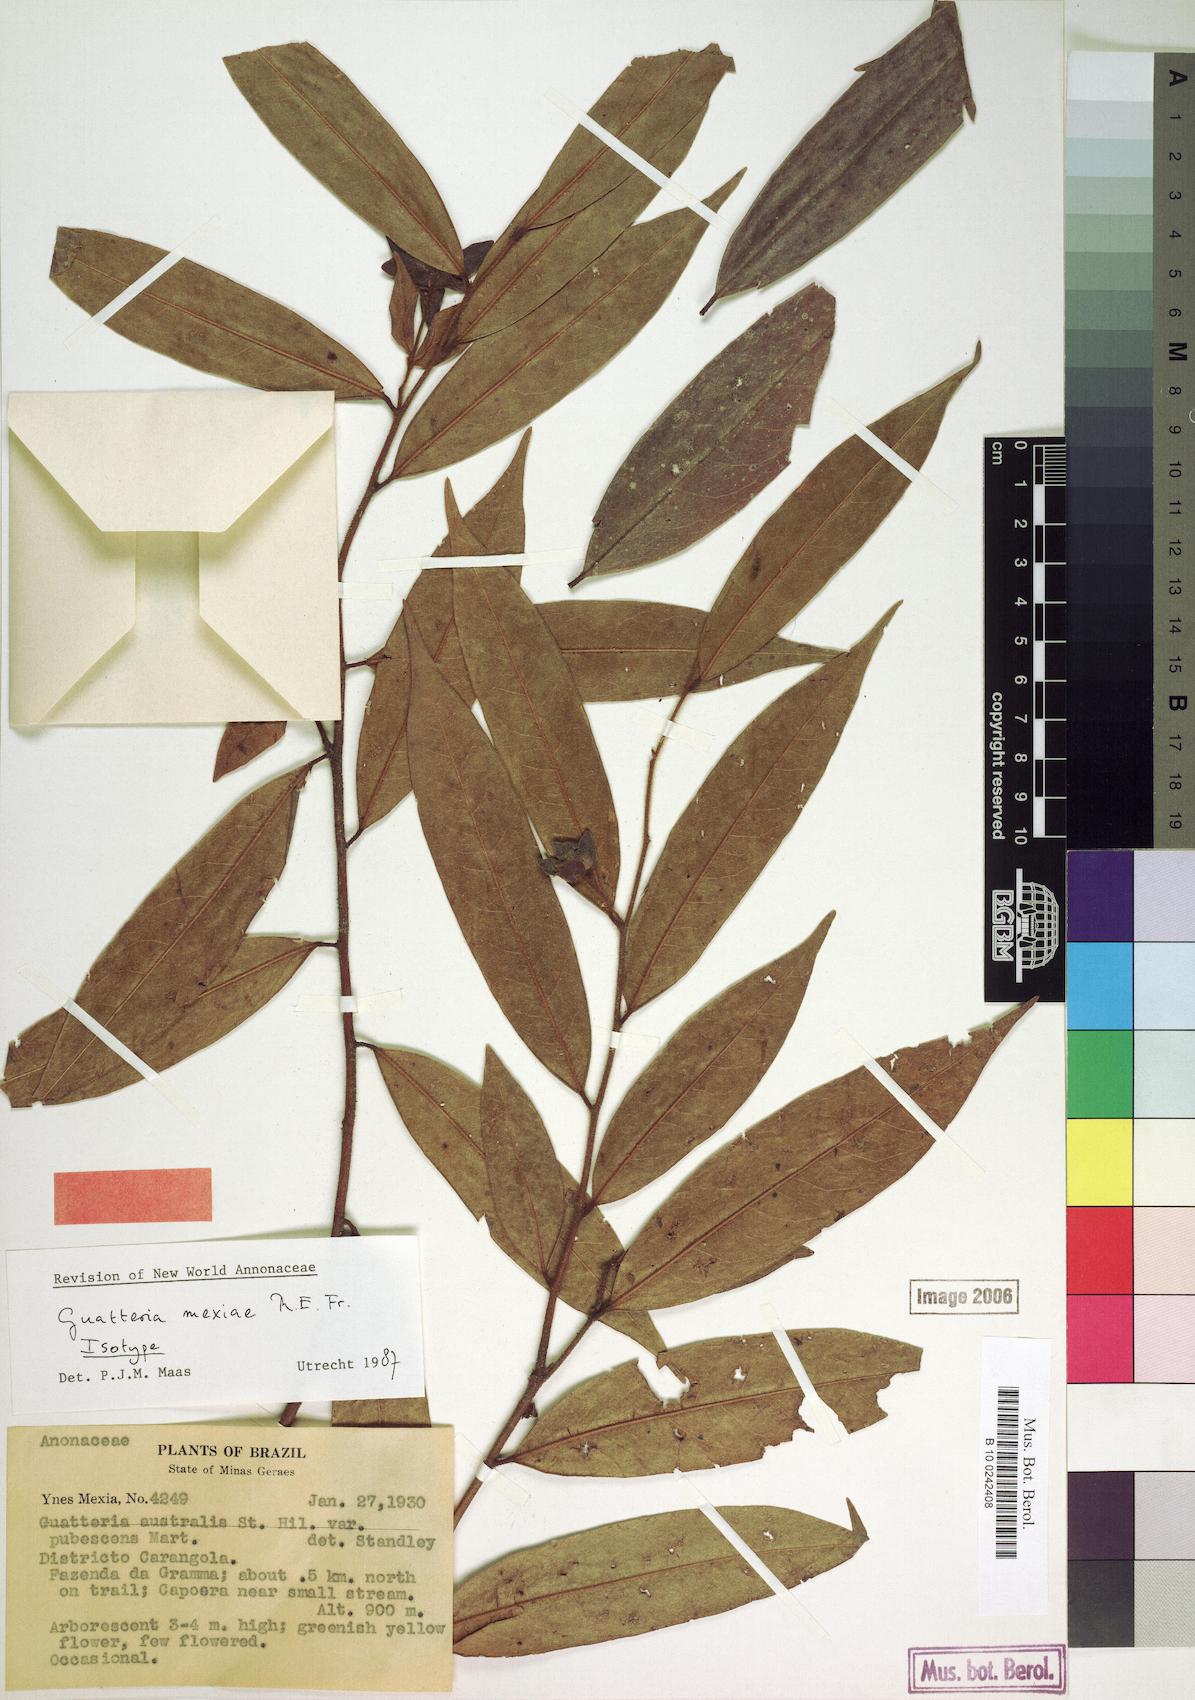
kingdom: Plantae
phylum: Tracheophyta
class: Magnoliopsida
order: Magnoliales
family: Annonaceae
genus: Guatteria
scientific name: Guatteria sellowiana
